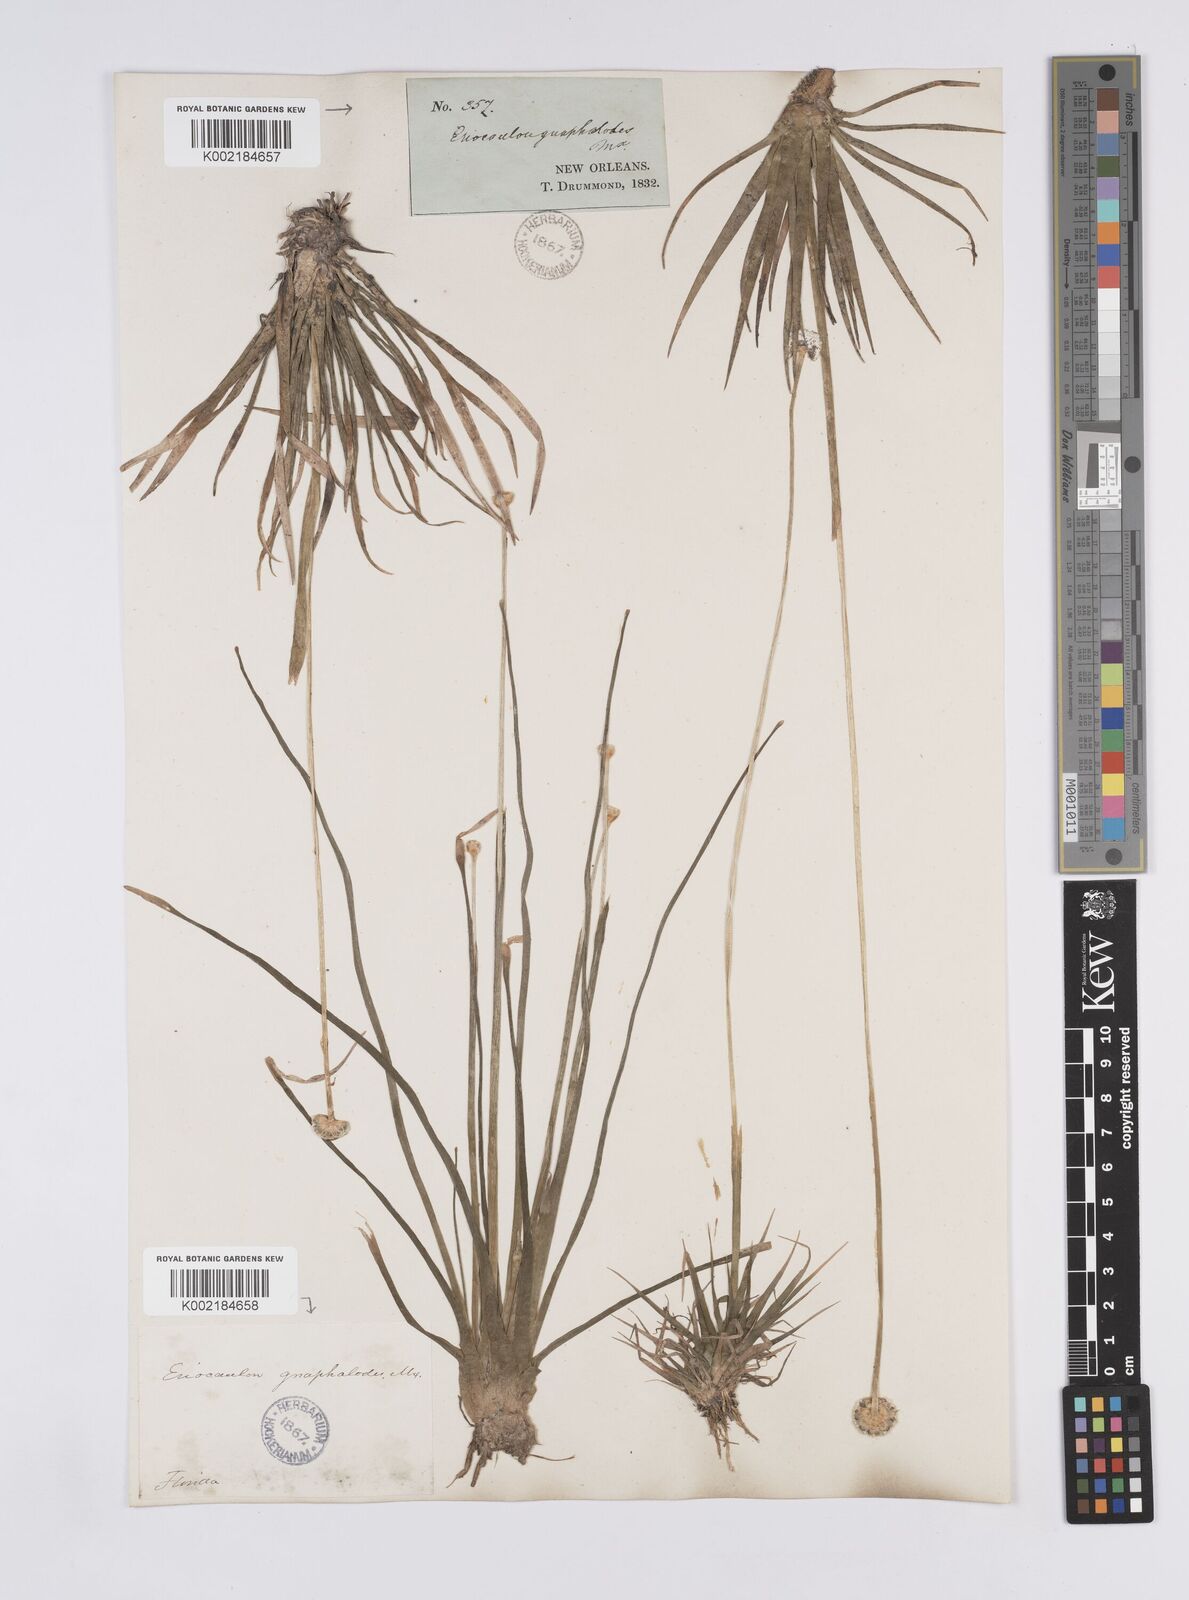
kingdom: Plantae
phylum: Tracheophyta
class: Liliopsida
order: Poales
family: Eriocaulaceae
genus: Eriocaulon
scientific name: Eriocaulon compressum
